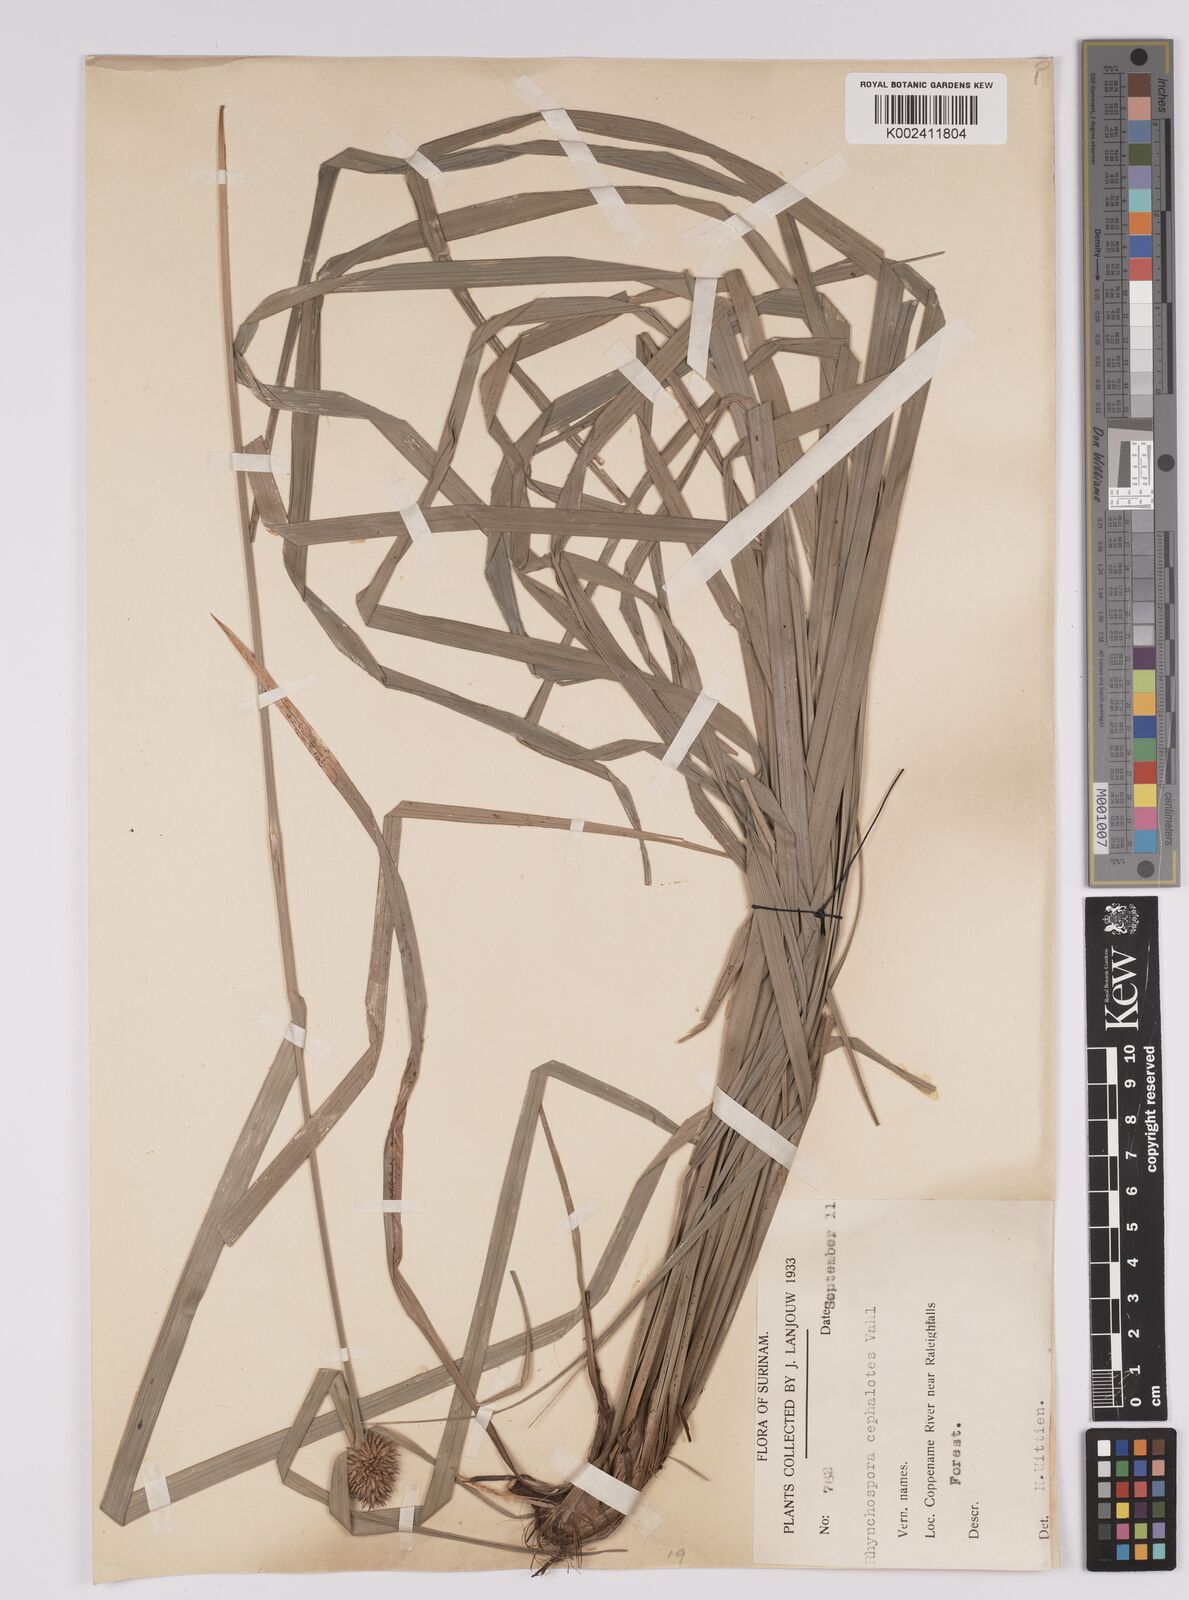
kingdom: Plantae
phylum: Tracheophyta
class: Liliopsida
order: Poales
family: Cyperaceae
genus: Rhynchospora
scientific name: Rhynchospora cephalotes
